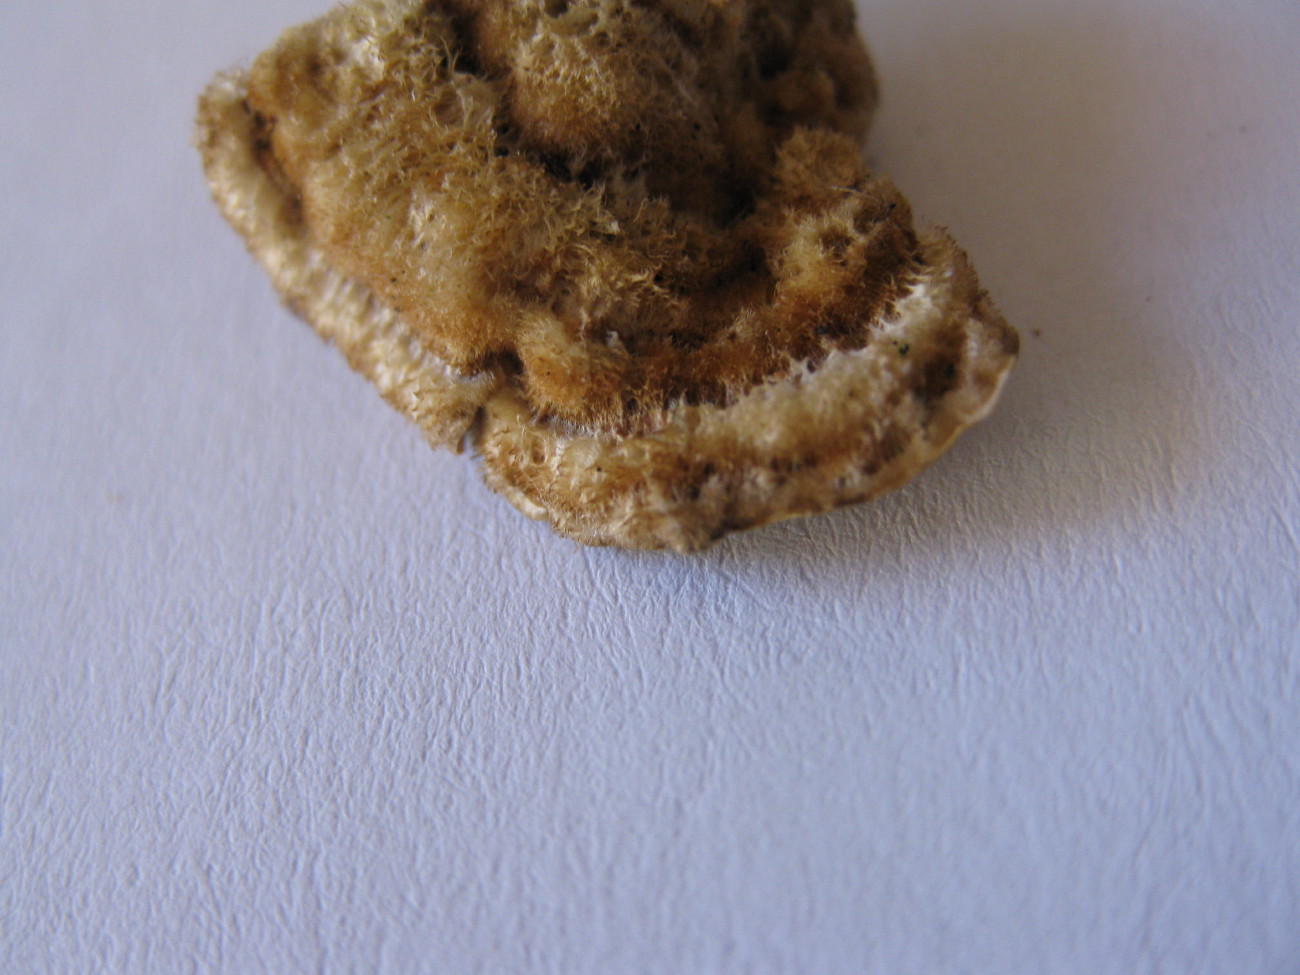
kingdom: Fungi
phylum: Basidiomycota
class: Agaricomycetes
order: Russulales
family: Stereaceae
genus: Stereum
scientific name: Stereum hirsutum
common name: håret lædersvamp
